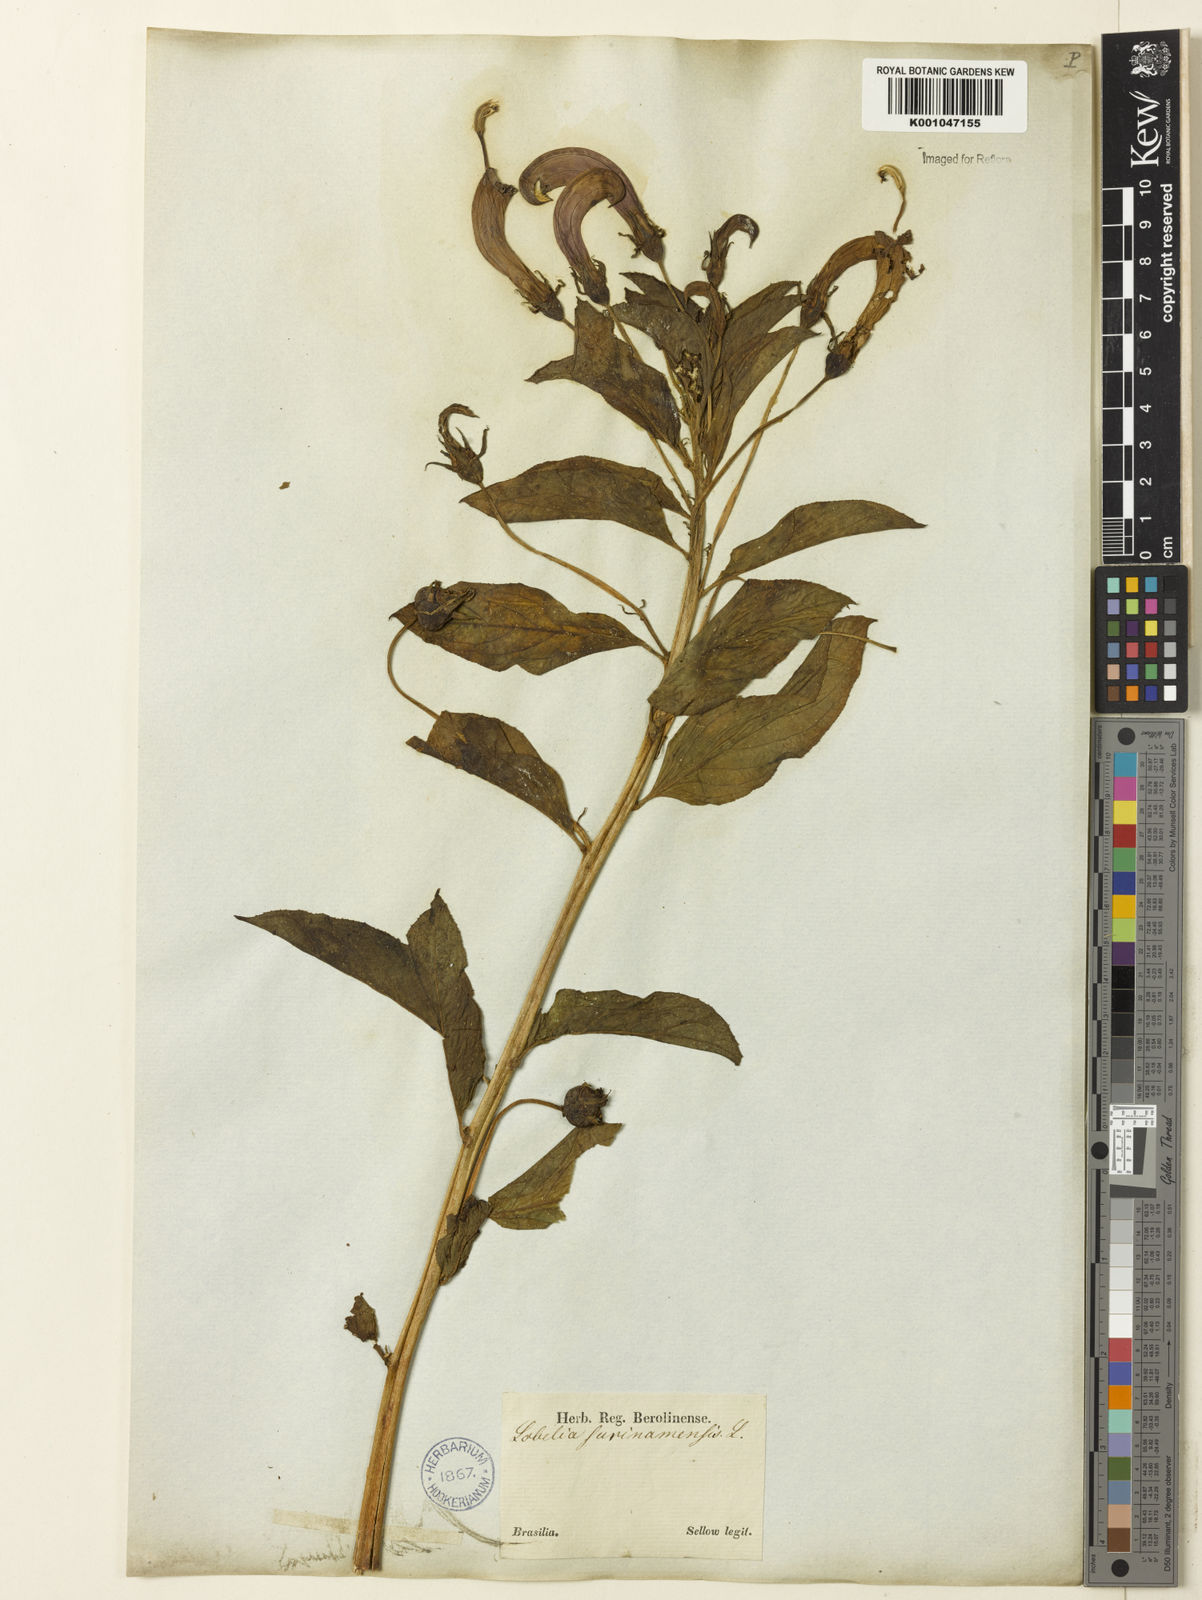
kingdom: Plantae
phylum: Tracheophyta
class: Magnoliopsida
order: Asterales
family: Campanulaceae
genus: Centropogon
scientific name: Centropogon cornutus
